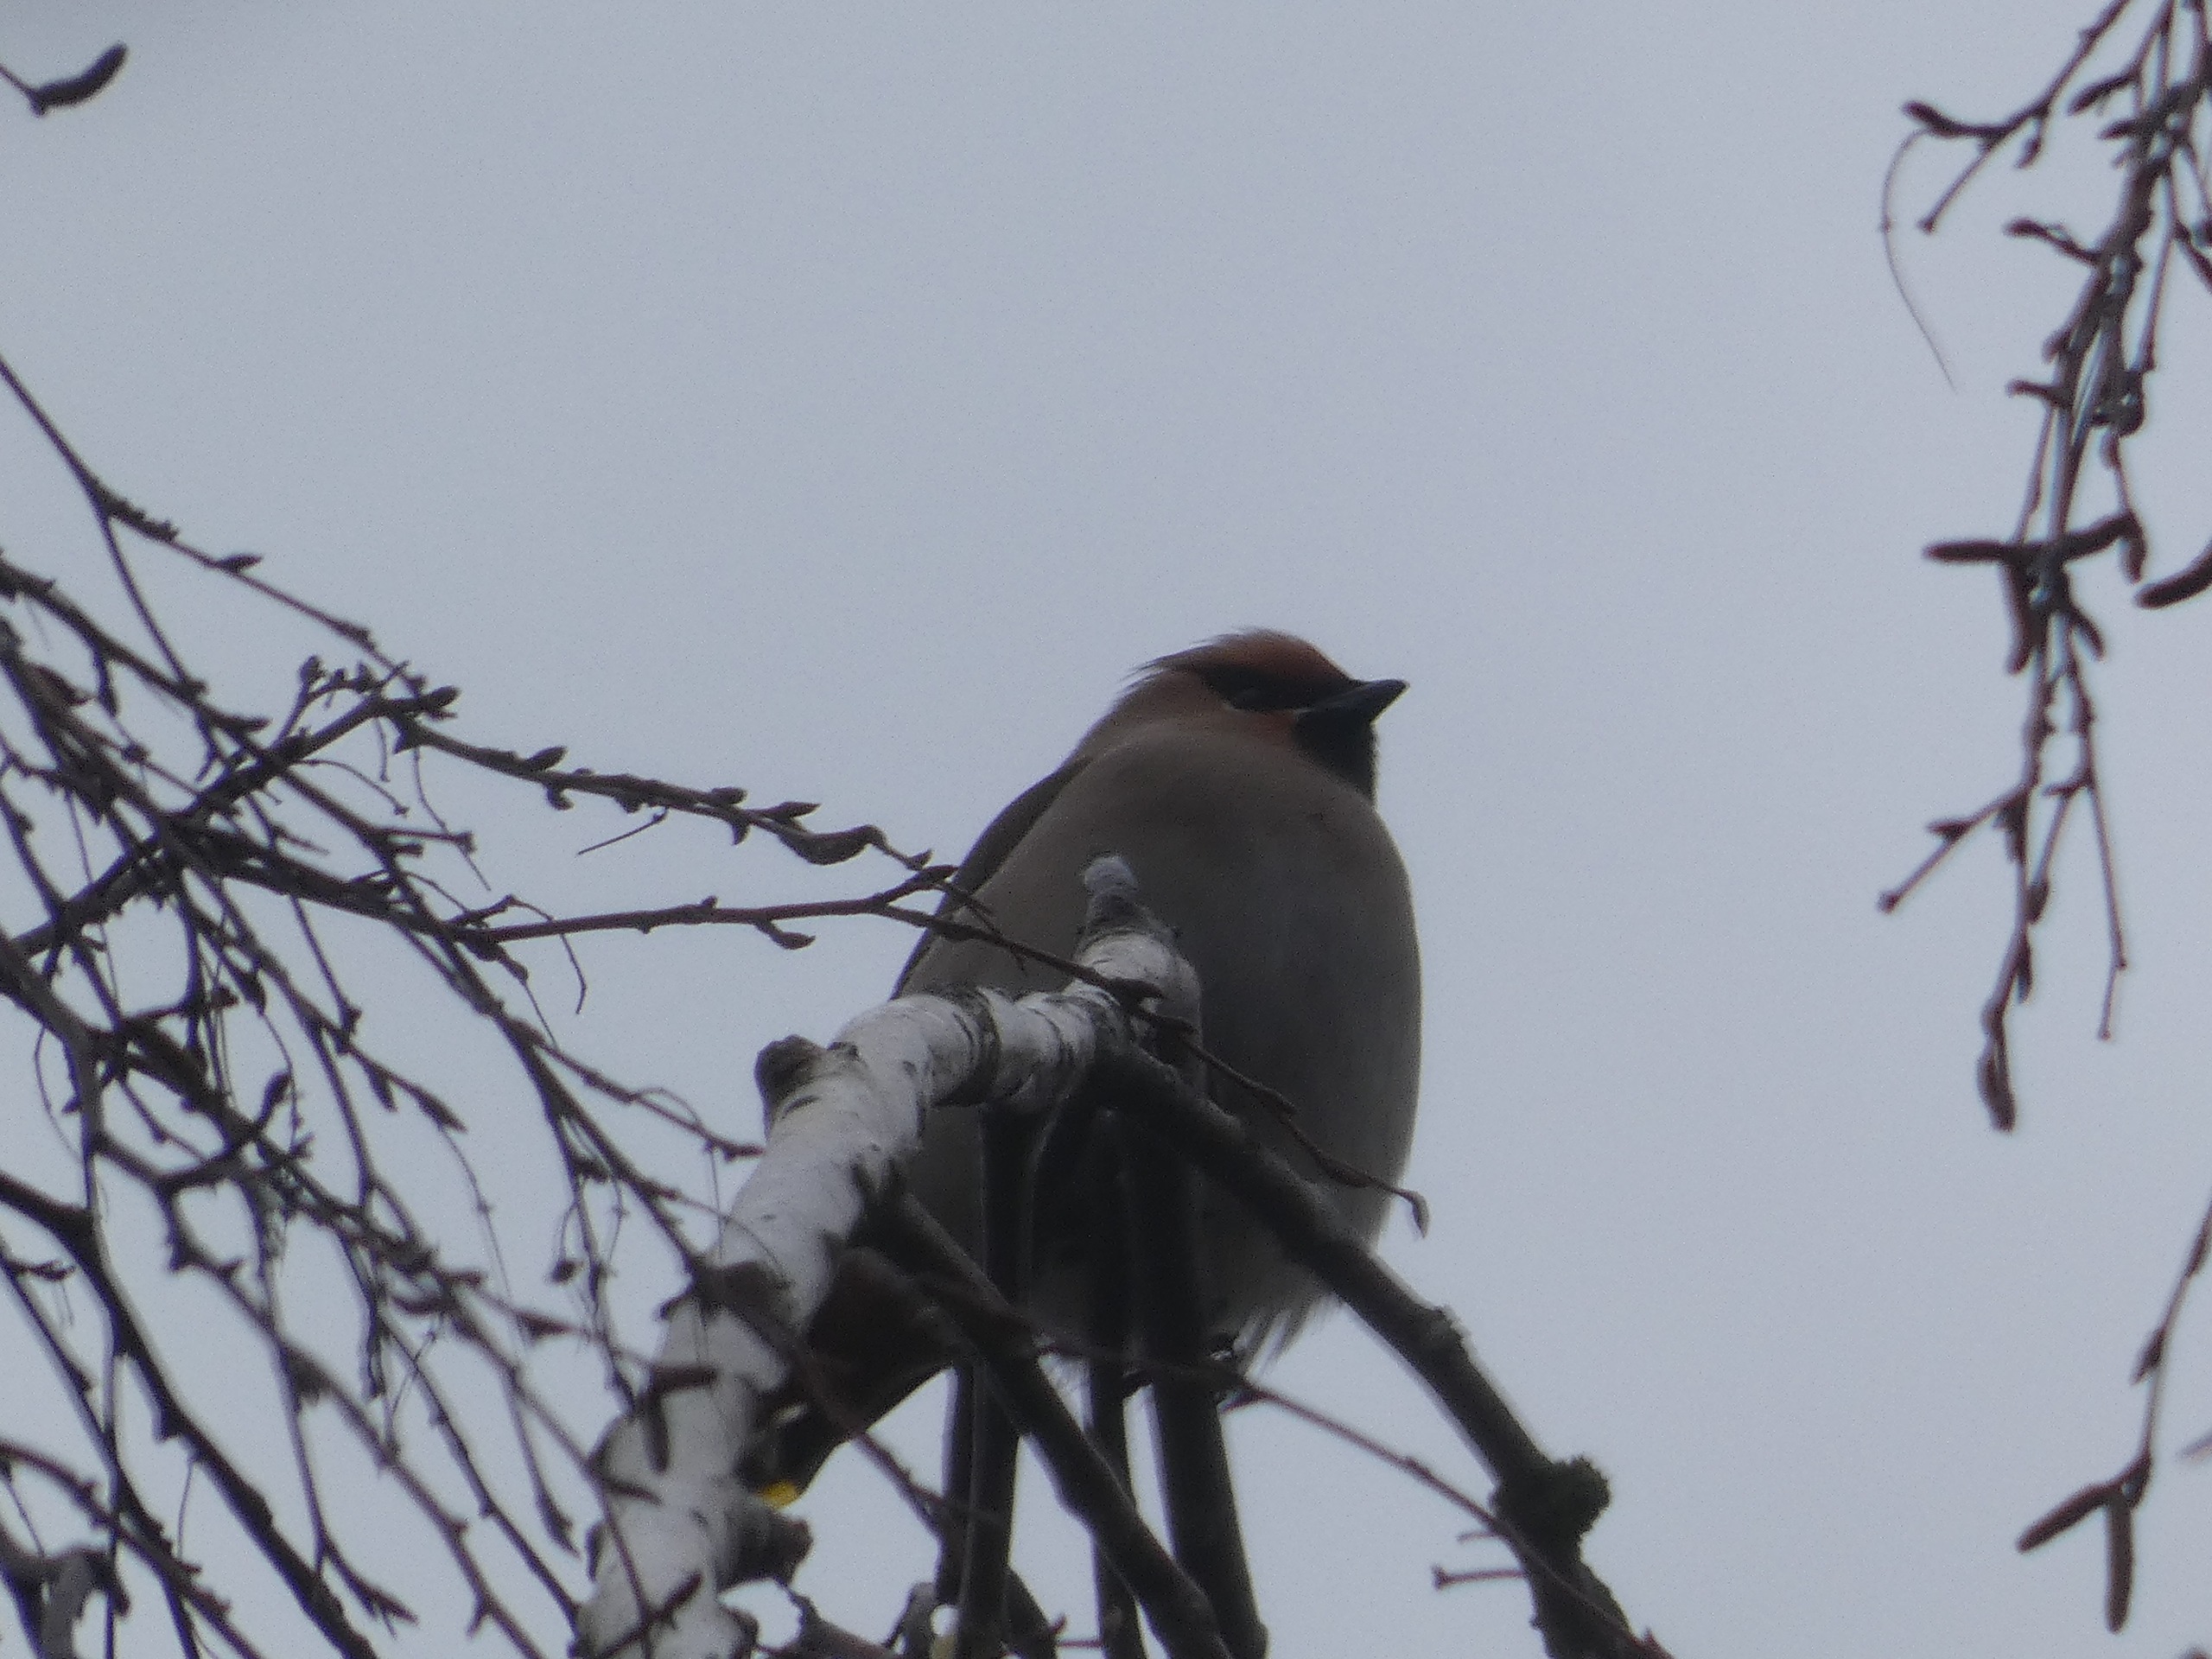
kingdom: Animalia
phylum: Chordata
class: Aves
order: Passeriformes
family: Bombycillidae
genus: Bombycilla
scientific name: Bombycilla garrulus
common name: Silkehale
